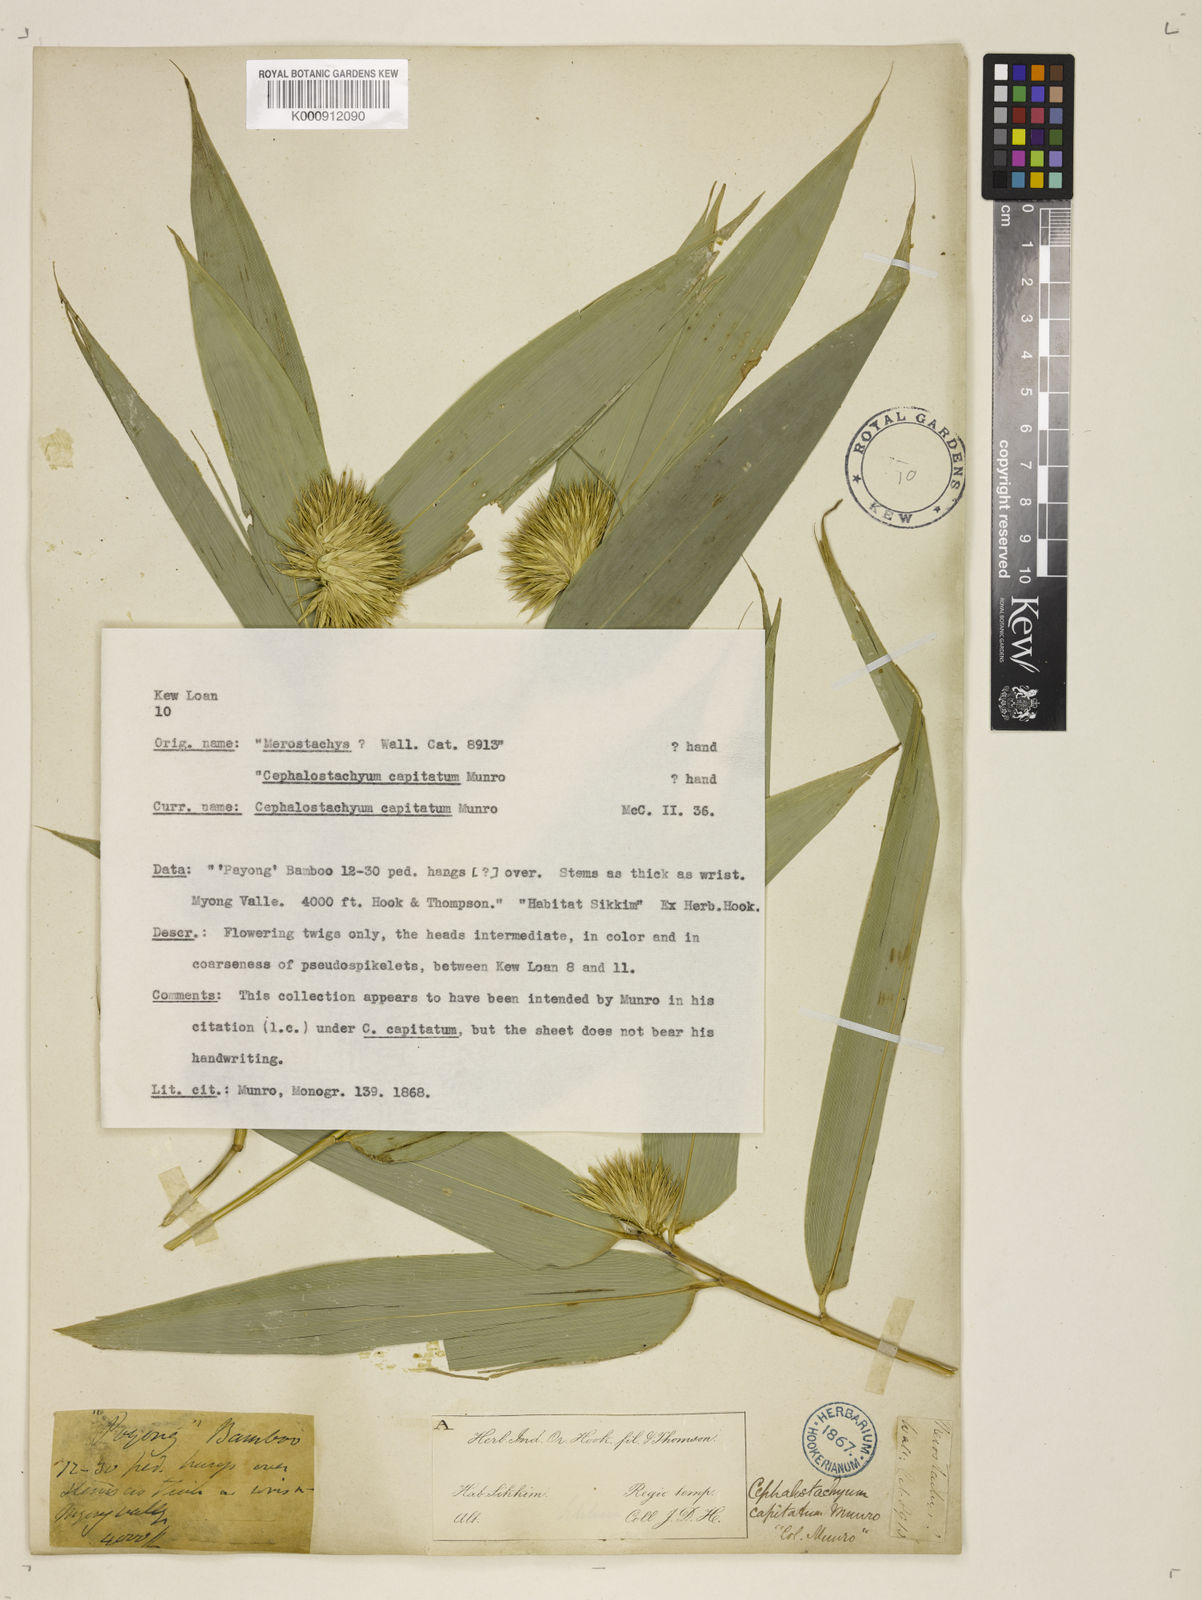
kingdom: Plantae
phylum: Tracheophyta
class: Liliopsida
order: Poales
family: Poaceae
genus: Cephalostachyum
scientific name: Cephalostachyum capitatum
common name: Hollow bamboo
